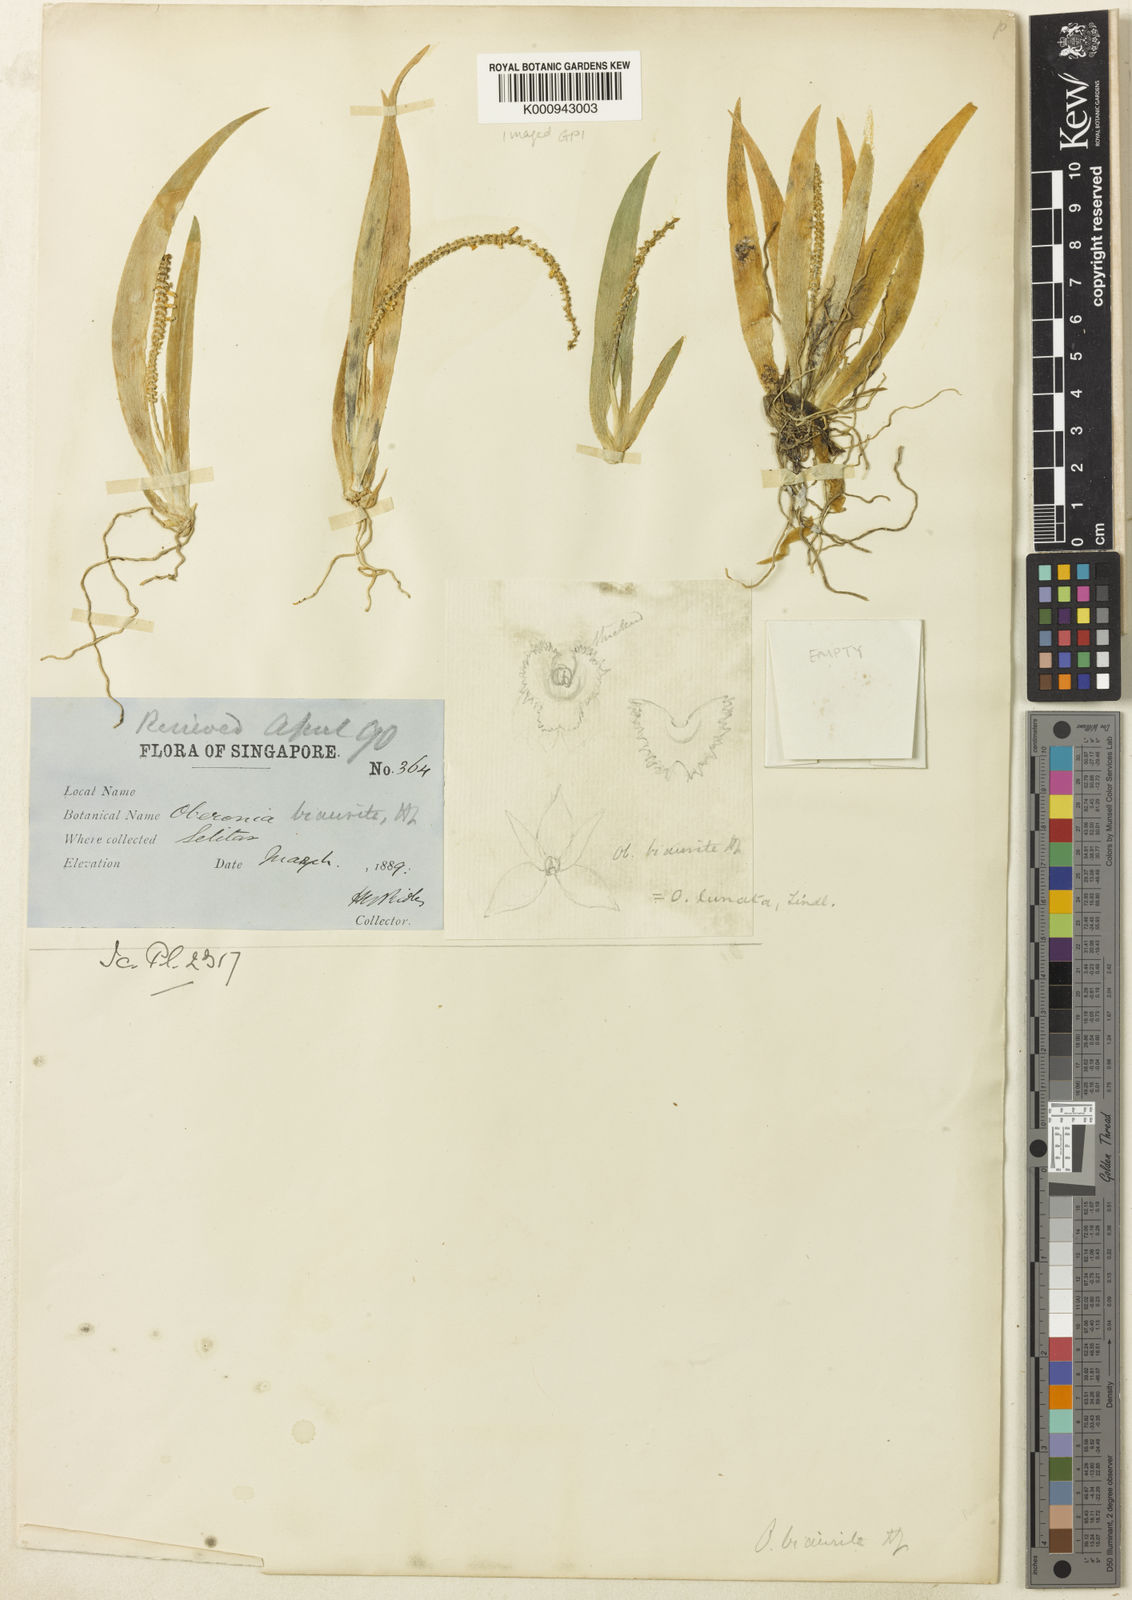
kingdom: Plantae
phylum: Tracheophyta
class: Liliopsida
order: Asparagales
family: Orchidaceae
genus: Oberonia
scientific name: Oberonia lunata
